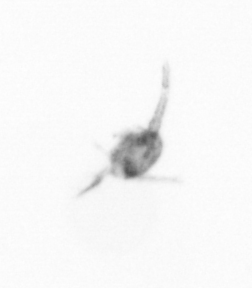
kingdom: Animalia
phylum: Arthropoda
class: Copepoda
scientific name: Copepoda
